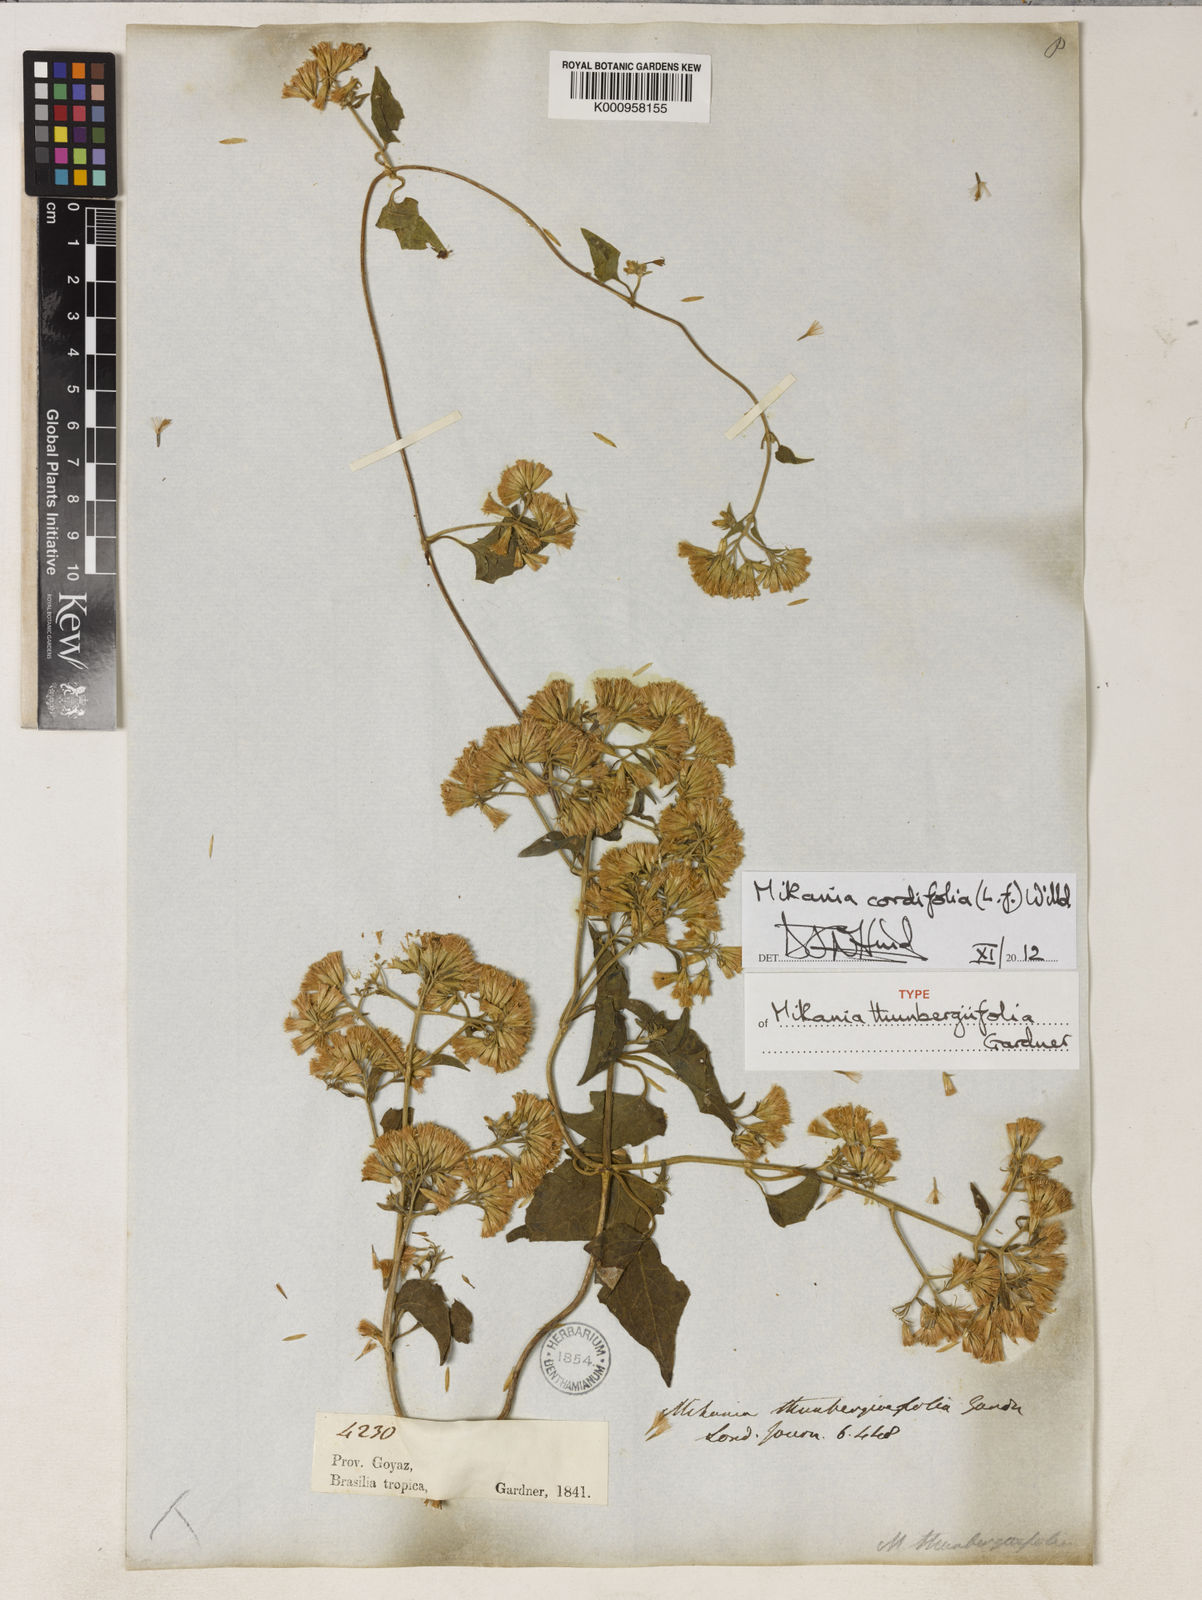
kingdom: Plantae
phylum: Tracheophyta
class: Magnoliopsida
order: Asterales
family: Asteraceae
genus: Mikania
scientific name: Mikania cordifolia
